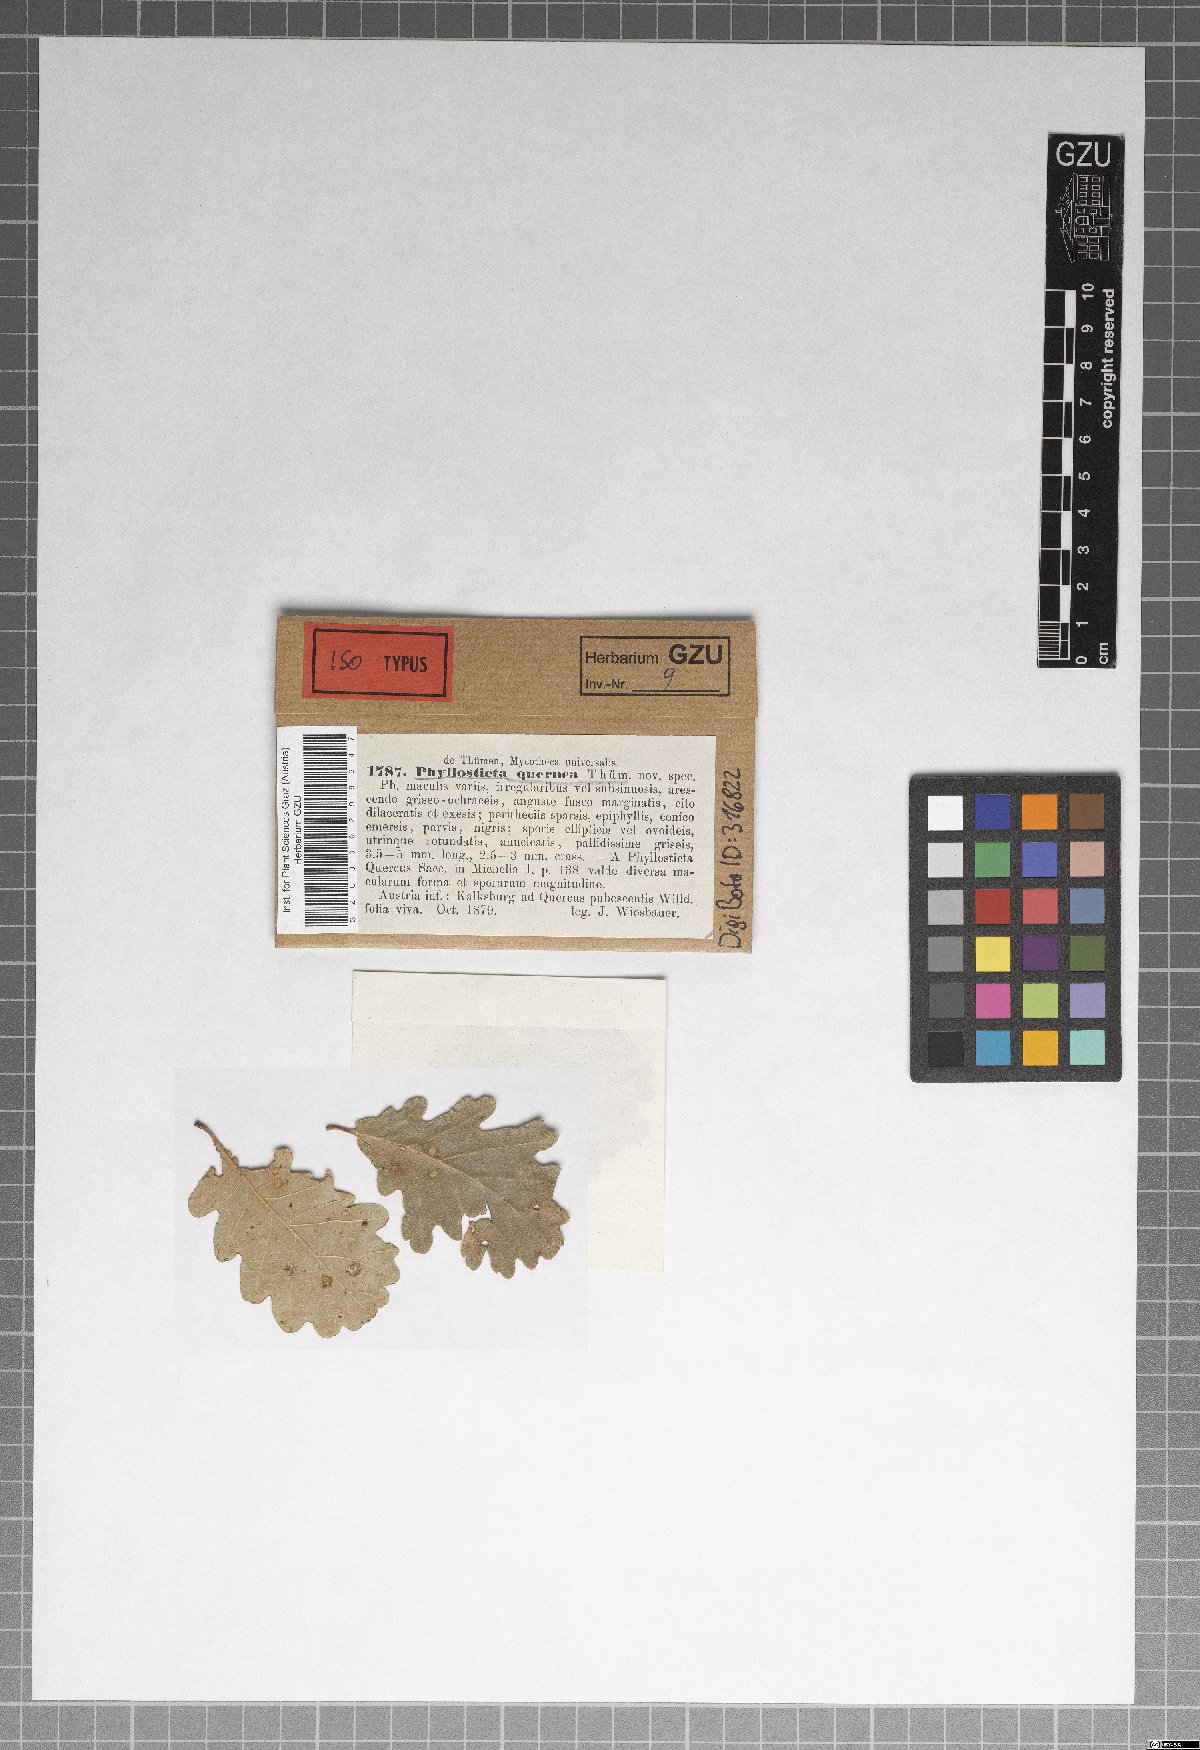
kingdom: Fungi
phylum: Ascomycota
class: Dothideomycetes
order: Botryosphaeriales
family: Phyllostictaceae
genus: Phyllosticta
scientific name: Phyllosticta quernea
